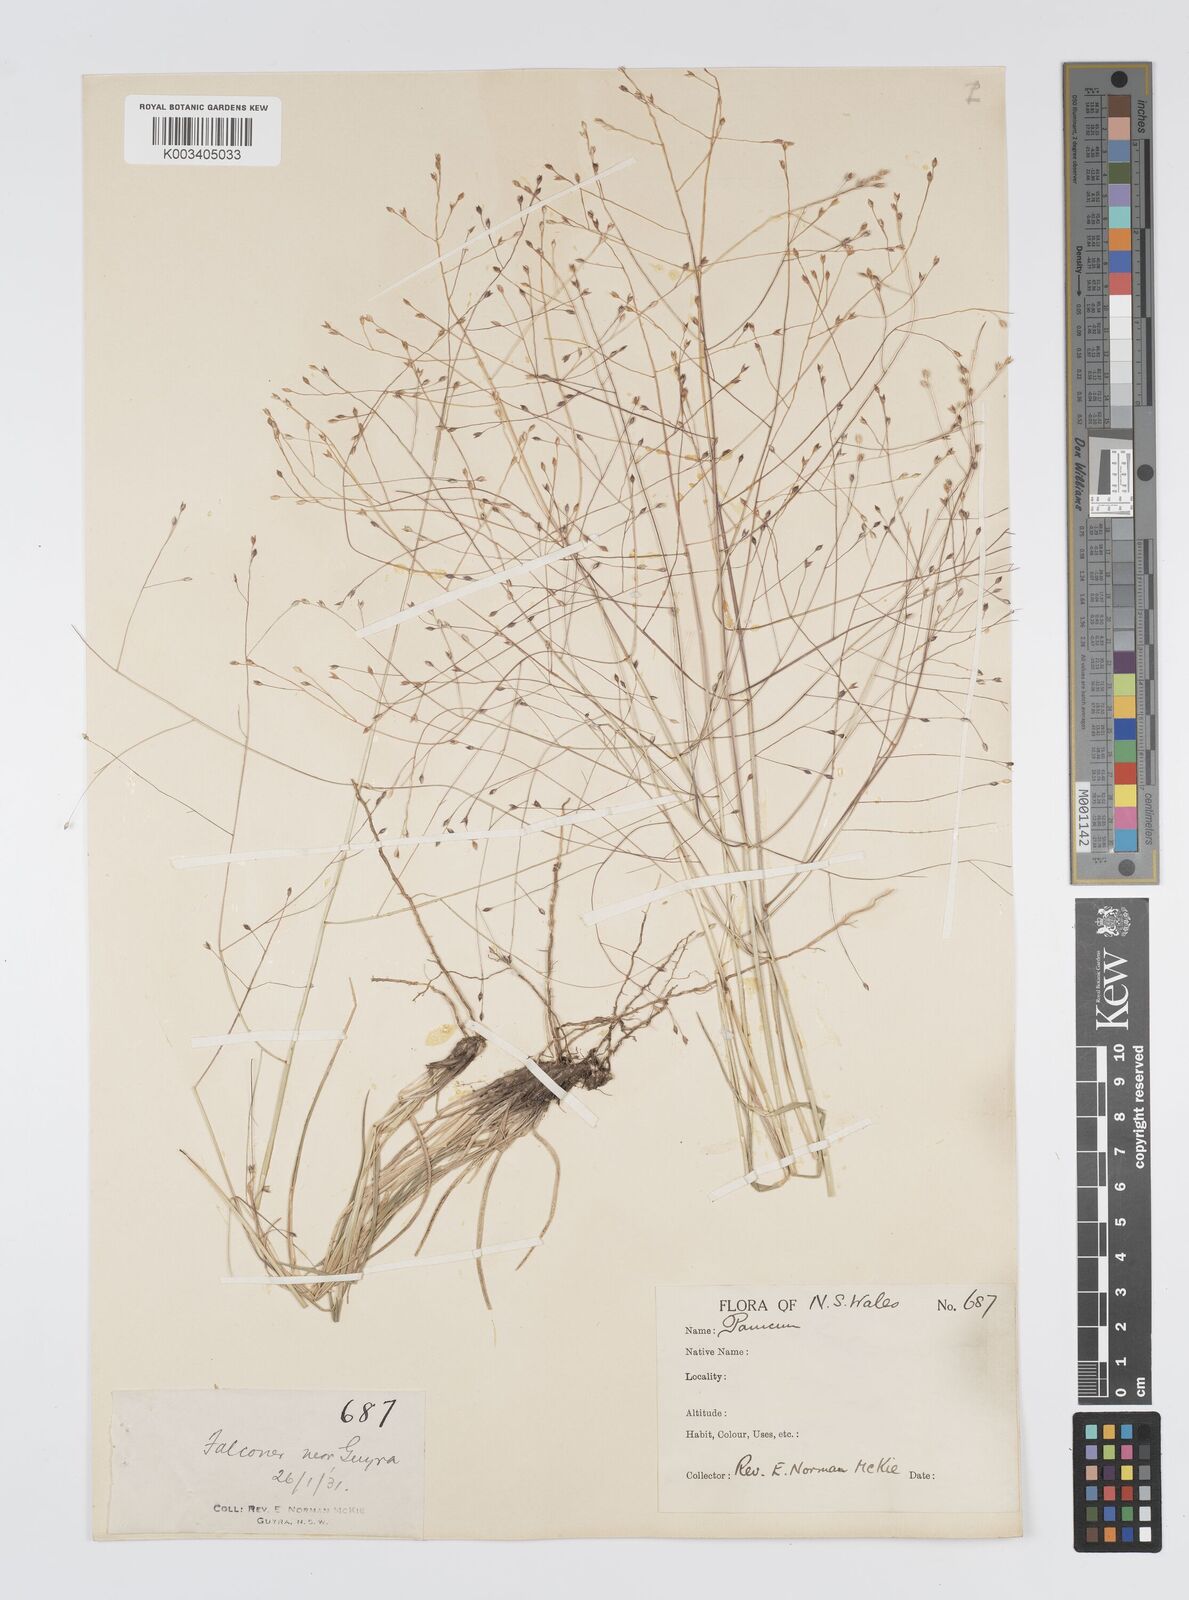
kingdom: Plantae
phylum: Tracheophyta
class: Liliopsida
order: Poales
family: Poaceae
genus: Panicum
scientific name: Panicum effusum
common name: Hairy panic grass
